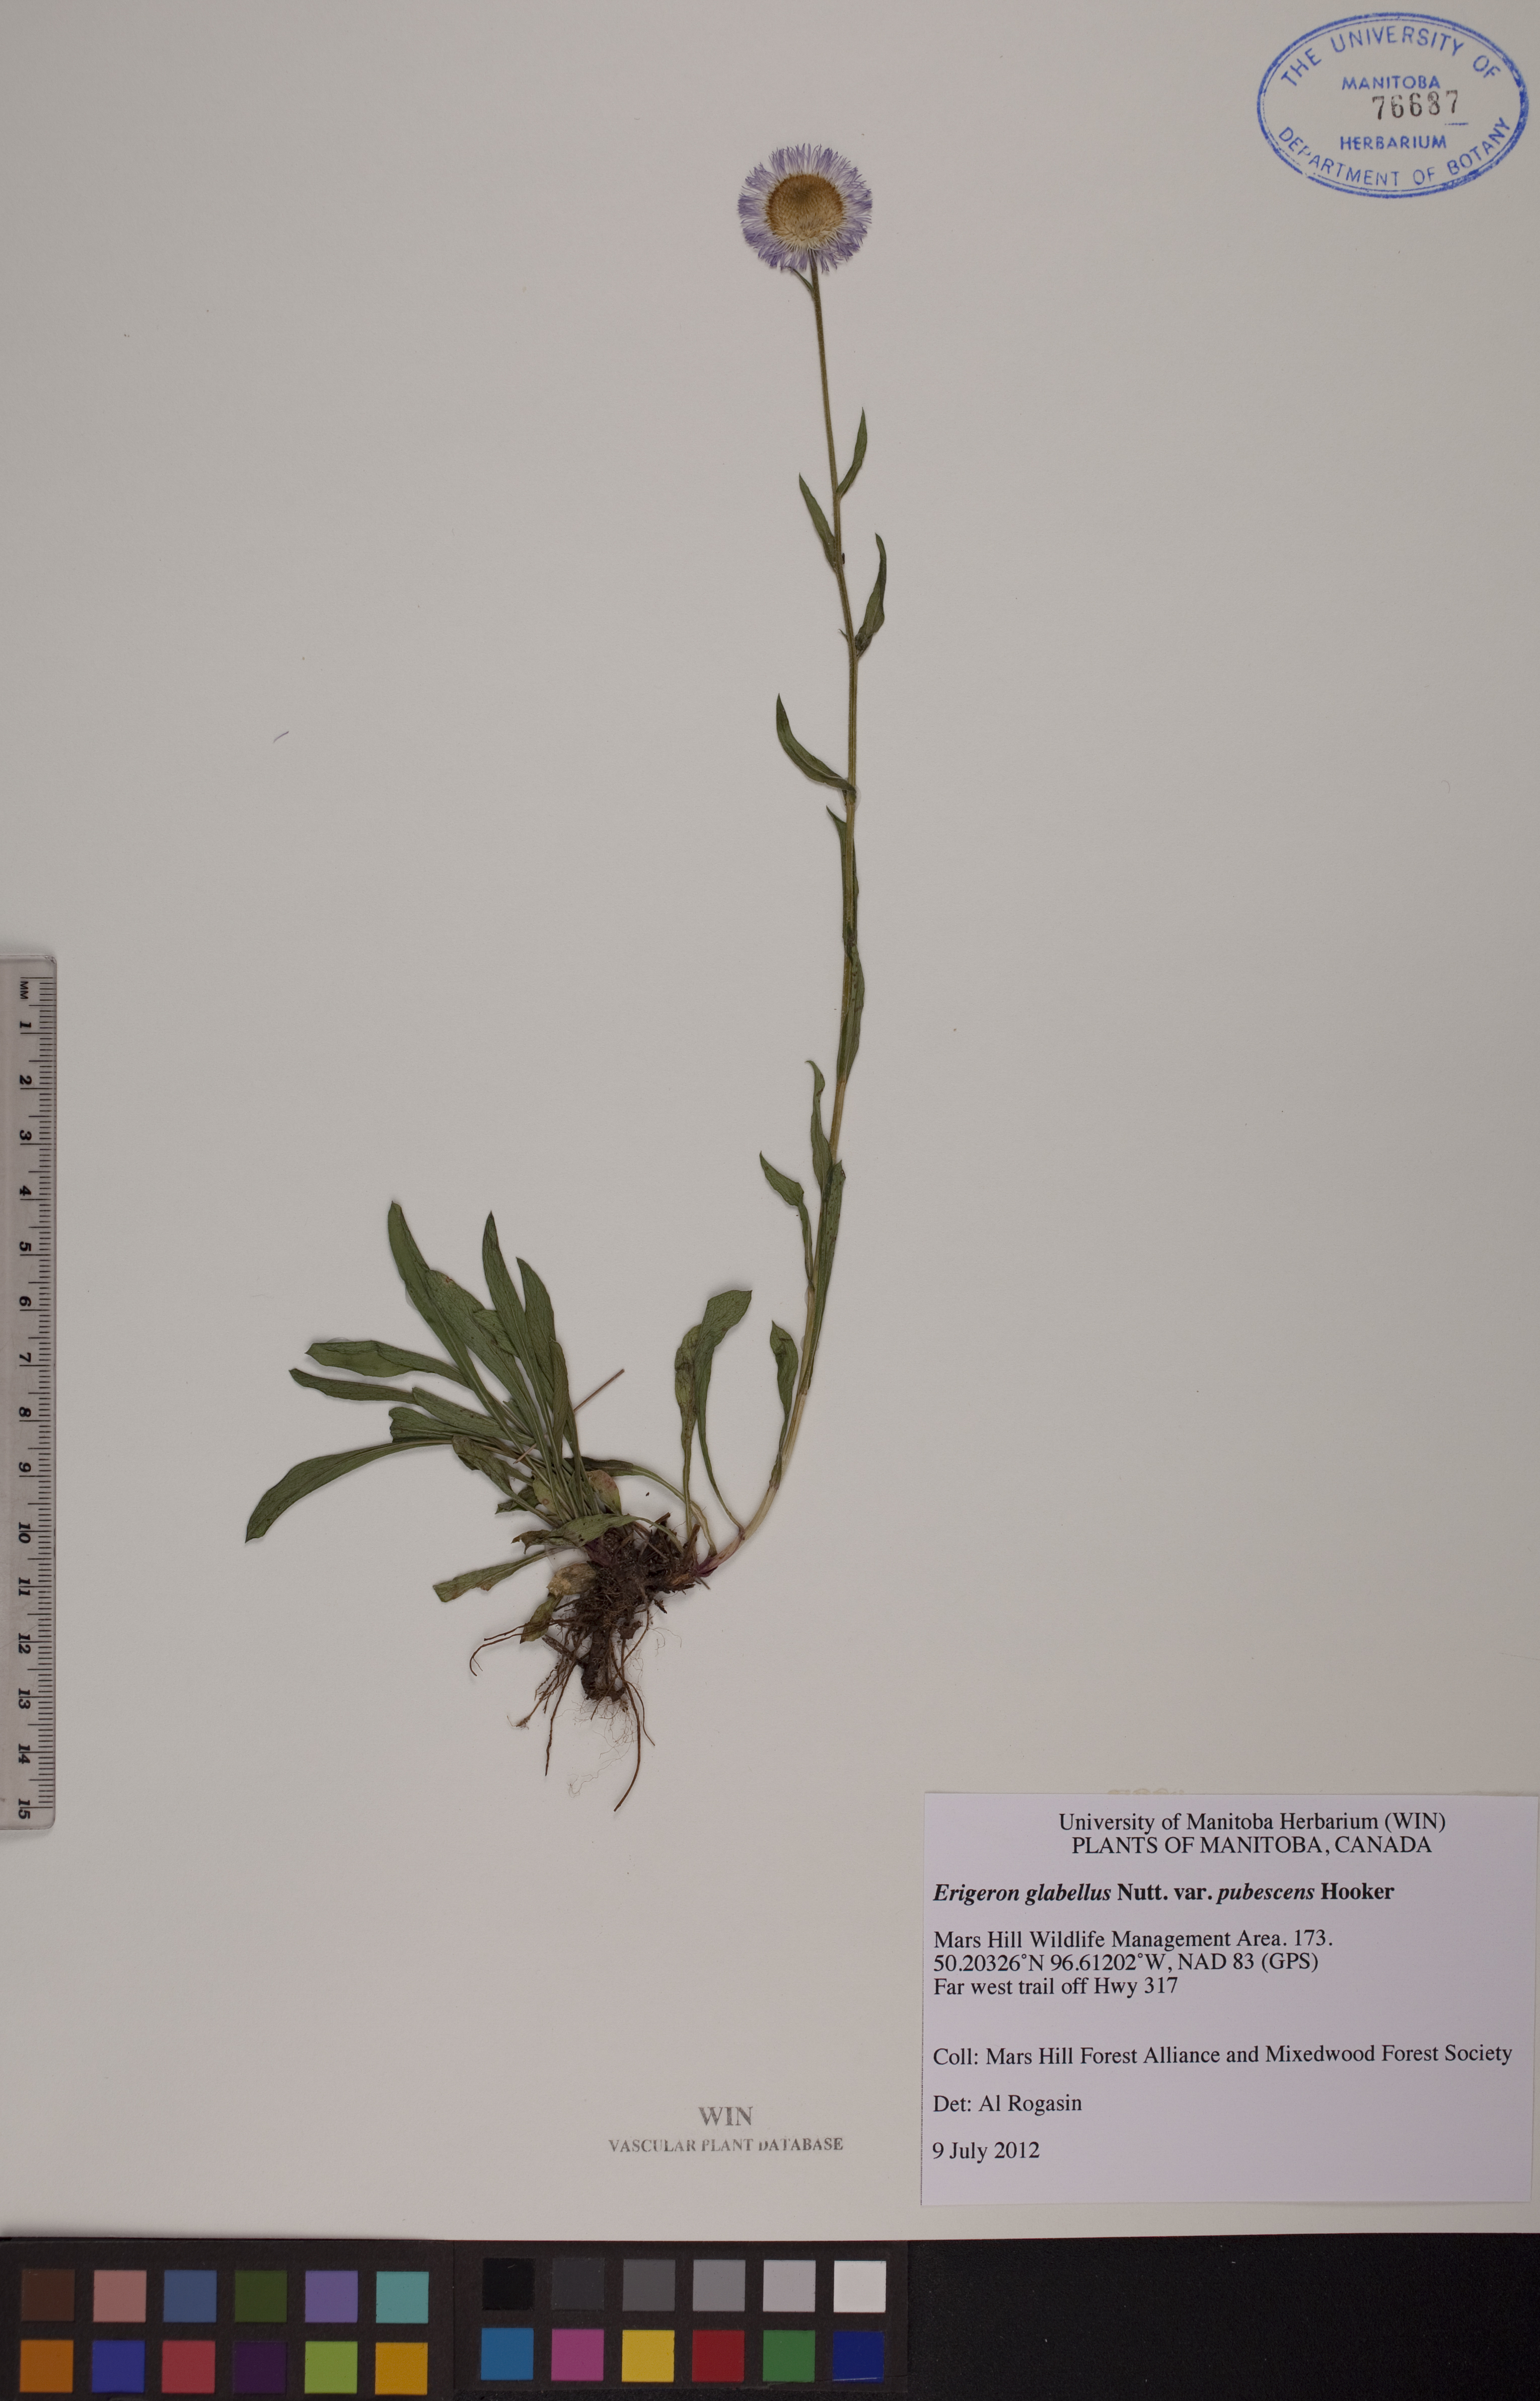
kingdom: Plantae
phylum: Tracheophyta
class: Magnoliopsida
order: Asterales
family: Asteraceae
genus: Erigeron
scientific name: Erigeron glabellus
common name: Smooth fleabane
